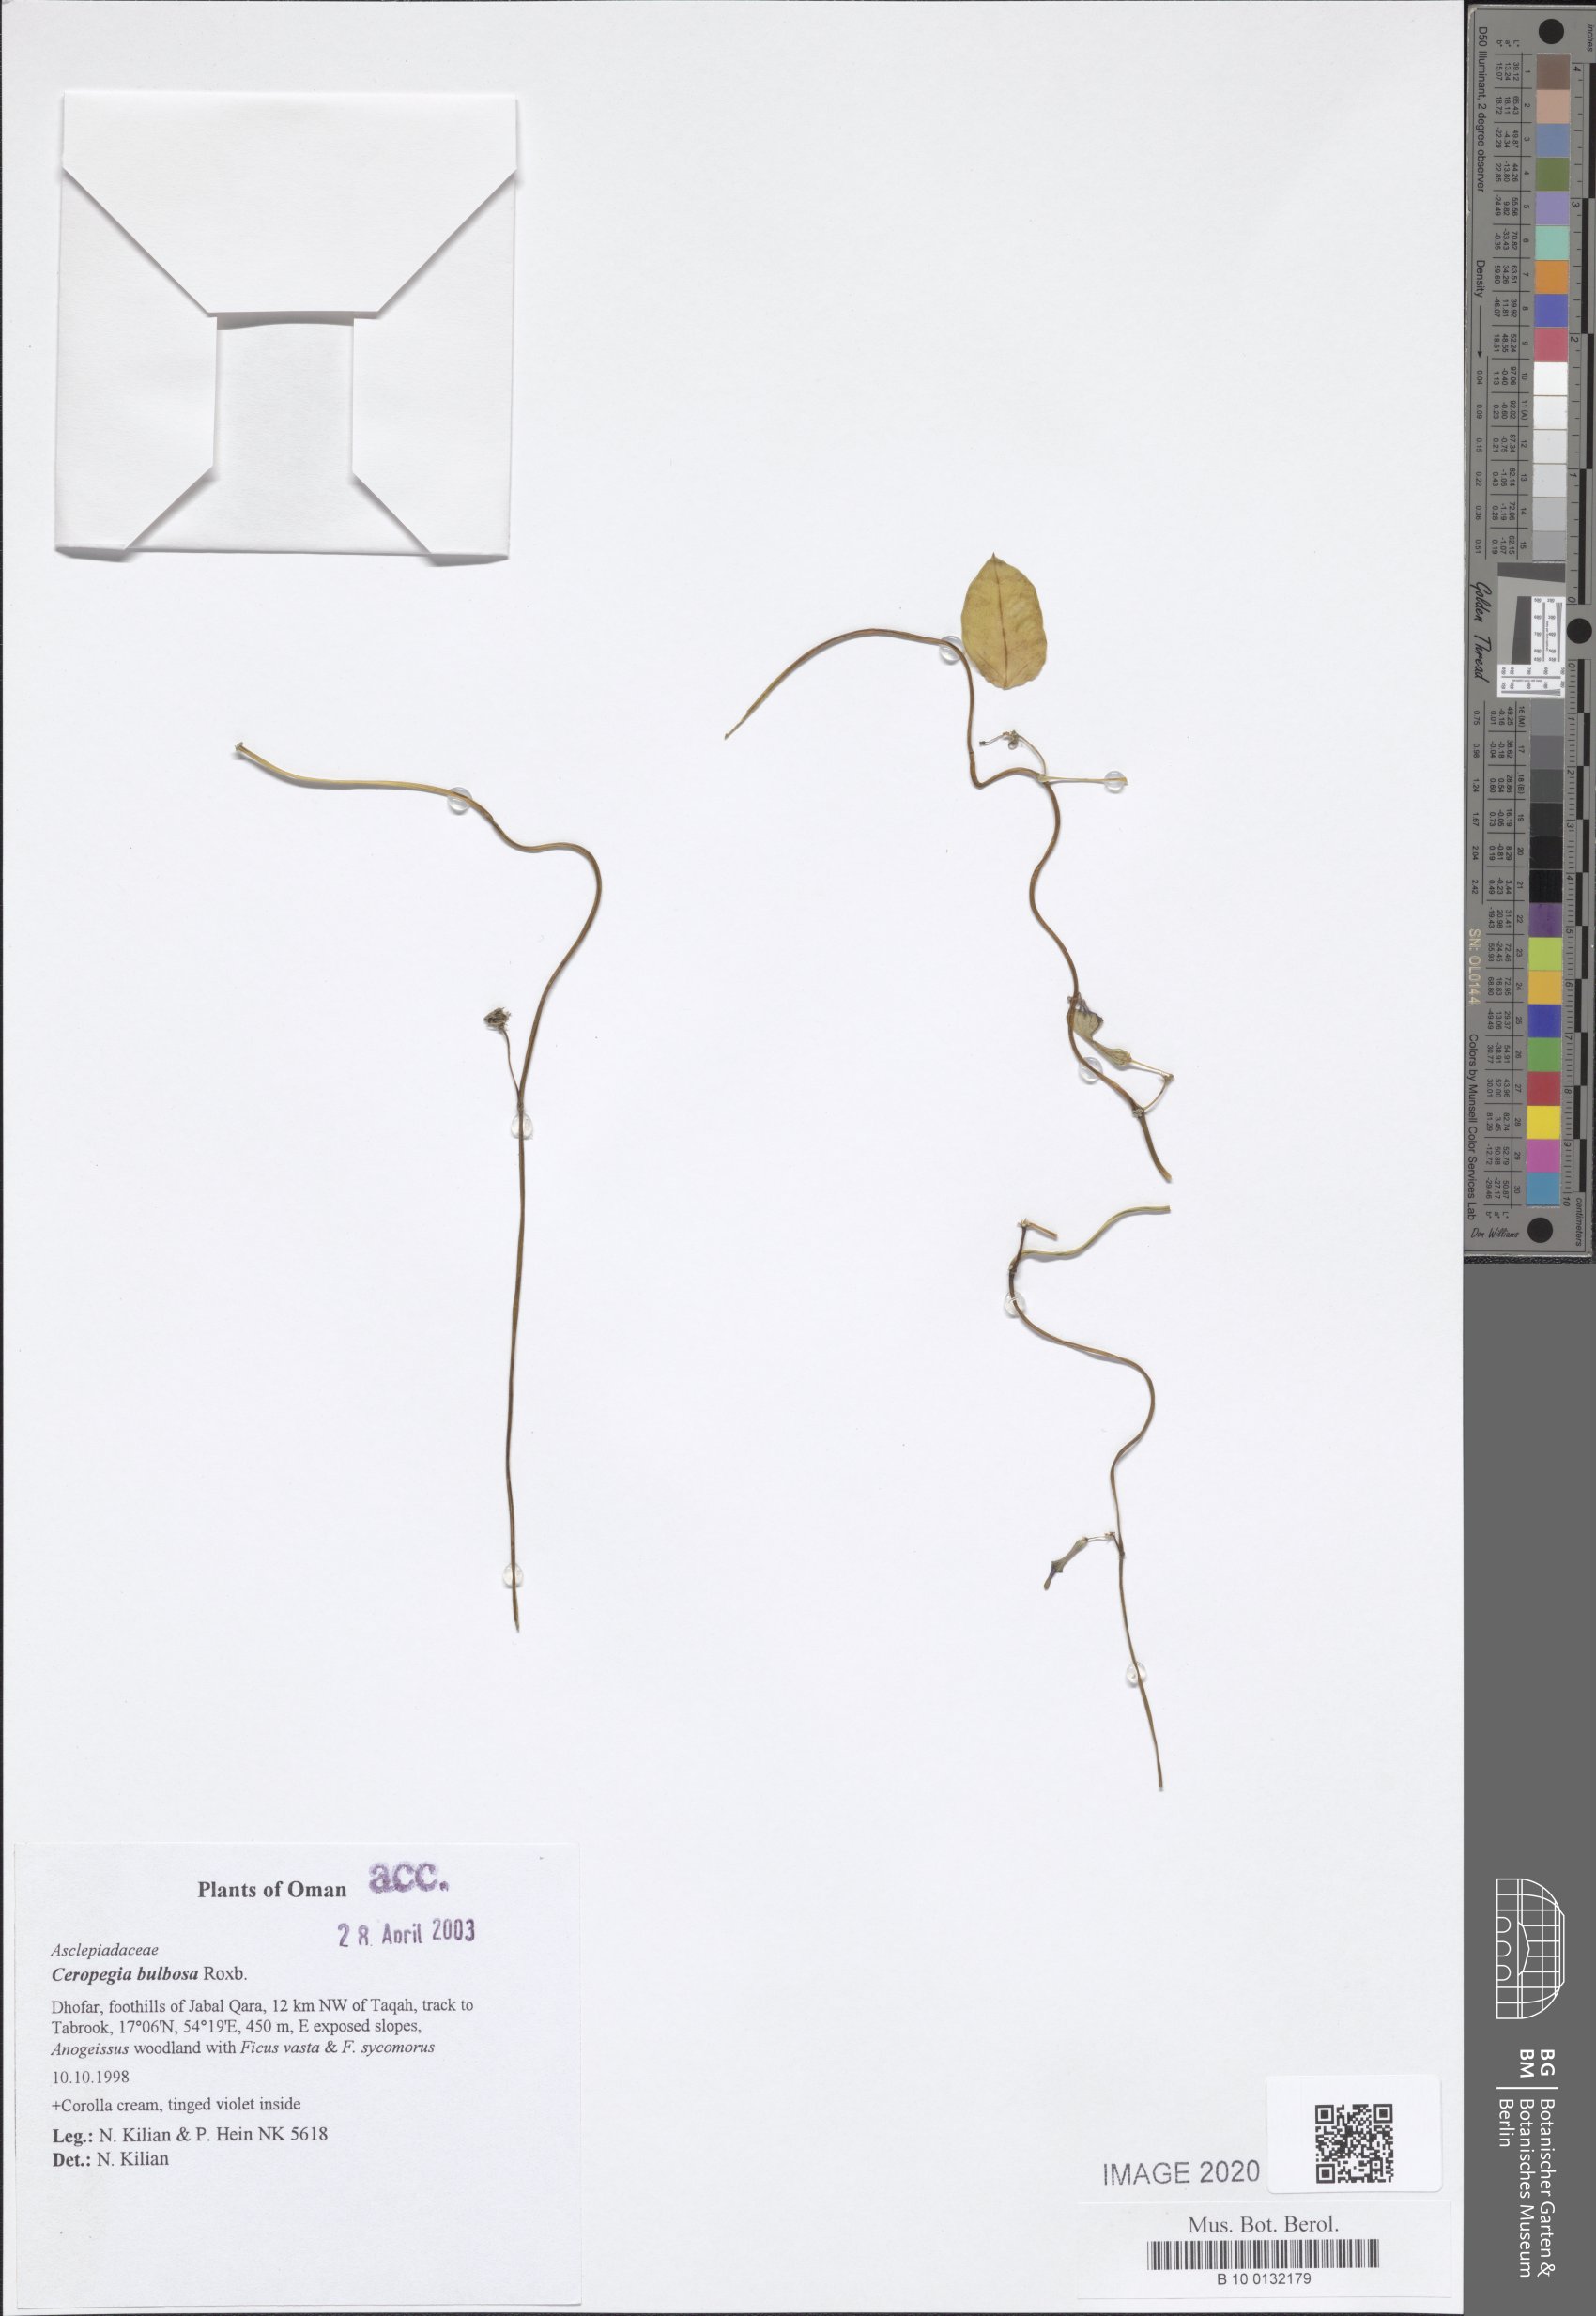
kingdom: Plantae
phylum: Tracheophyta
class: Magnoliopsida
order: Gentianales
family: Apocynaceae
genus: Ceropegia
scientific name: Ceropegia bulbosa
